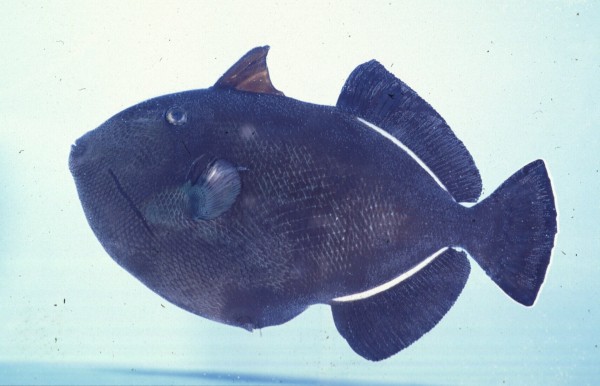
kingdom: Animalia
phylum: Chordata
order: Tetraodontiformes
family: Balistidae
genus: Melichthys
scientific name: Melichthys indicus
